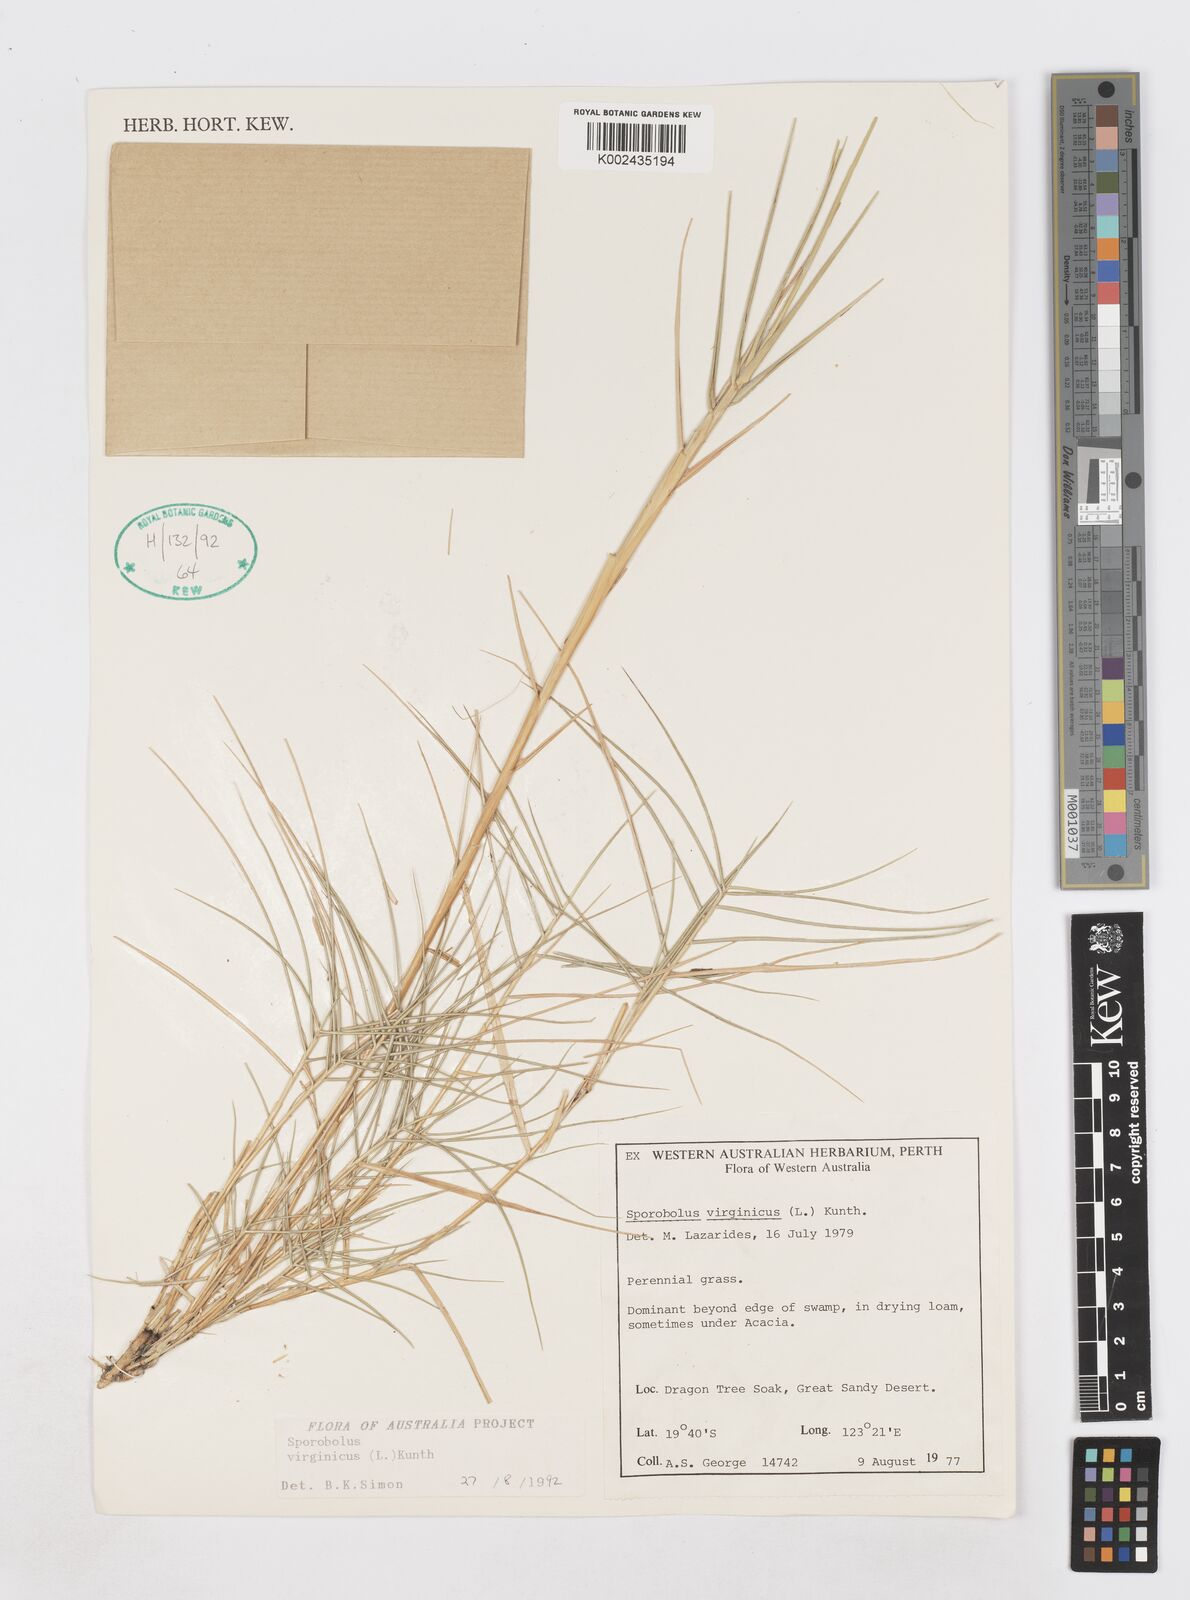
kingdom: Plantae
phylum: Tracheophyta
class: Liliopsida
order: Poales
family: Poaceae
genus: Sporobolus
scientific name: Sporobolus virginicus
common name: Beach dropseed
